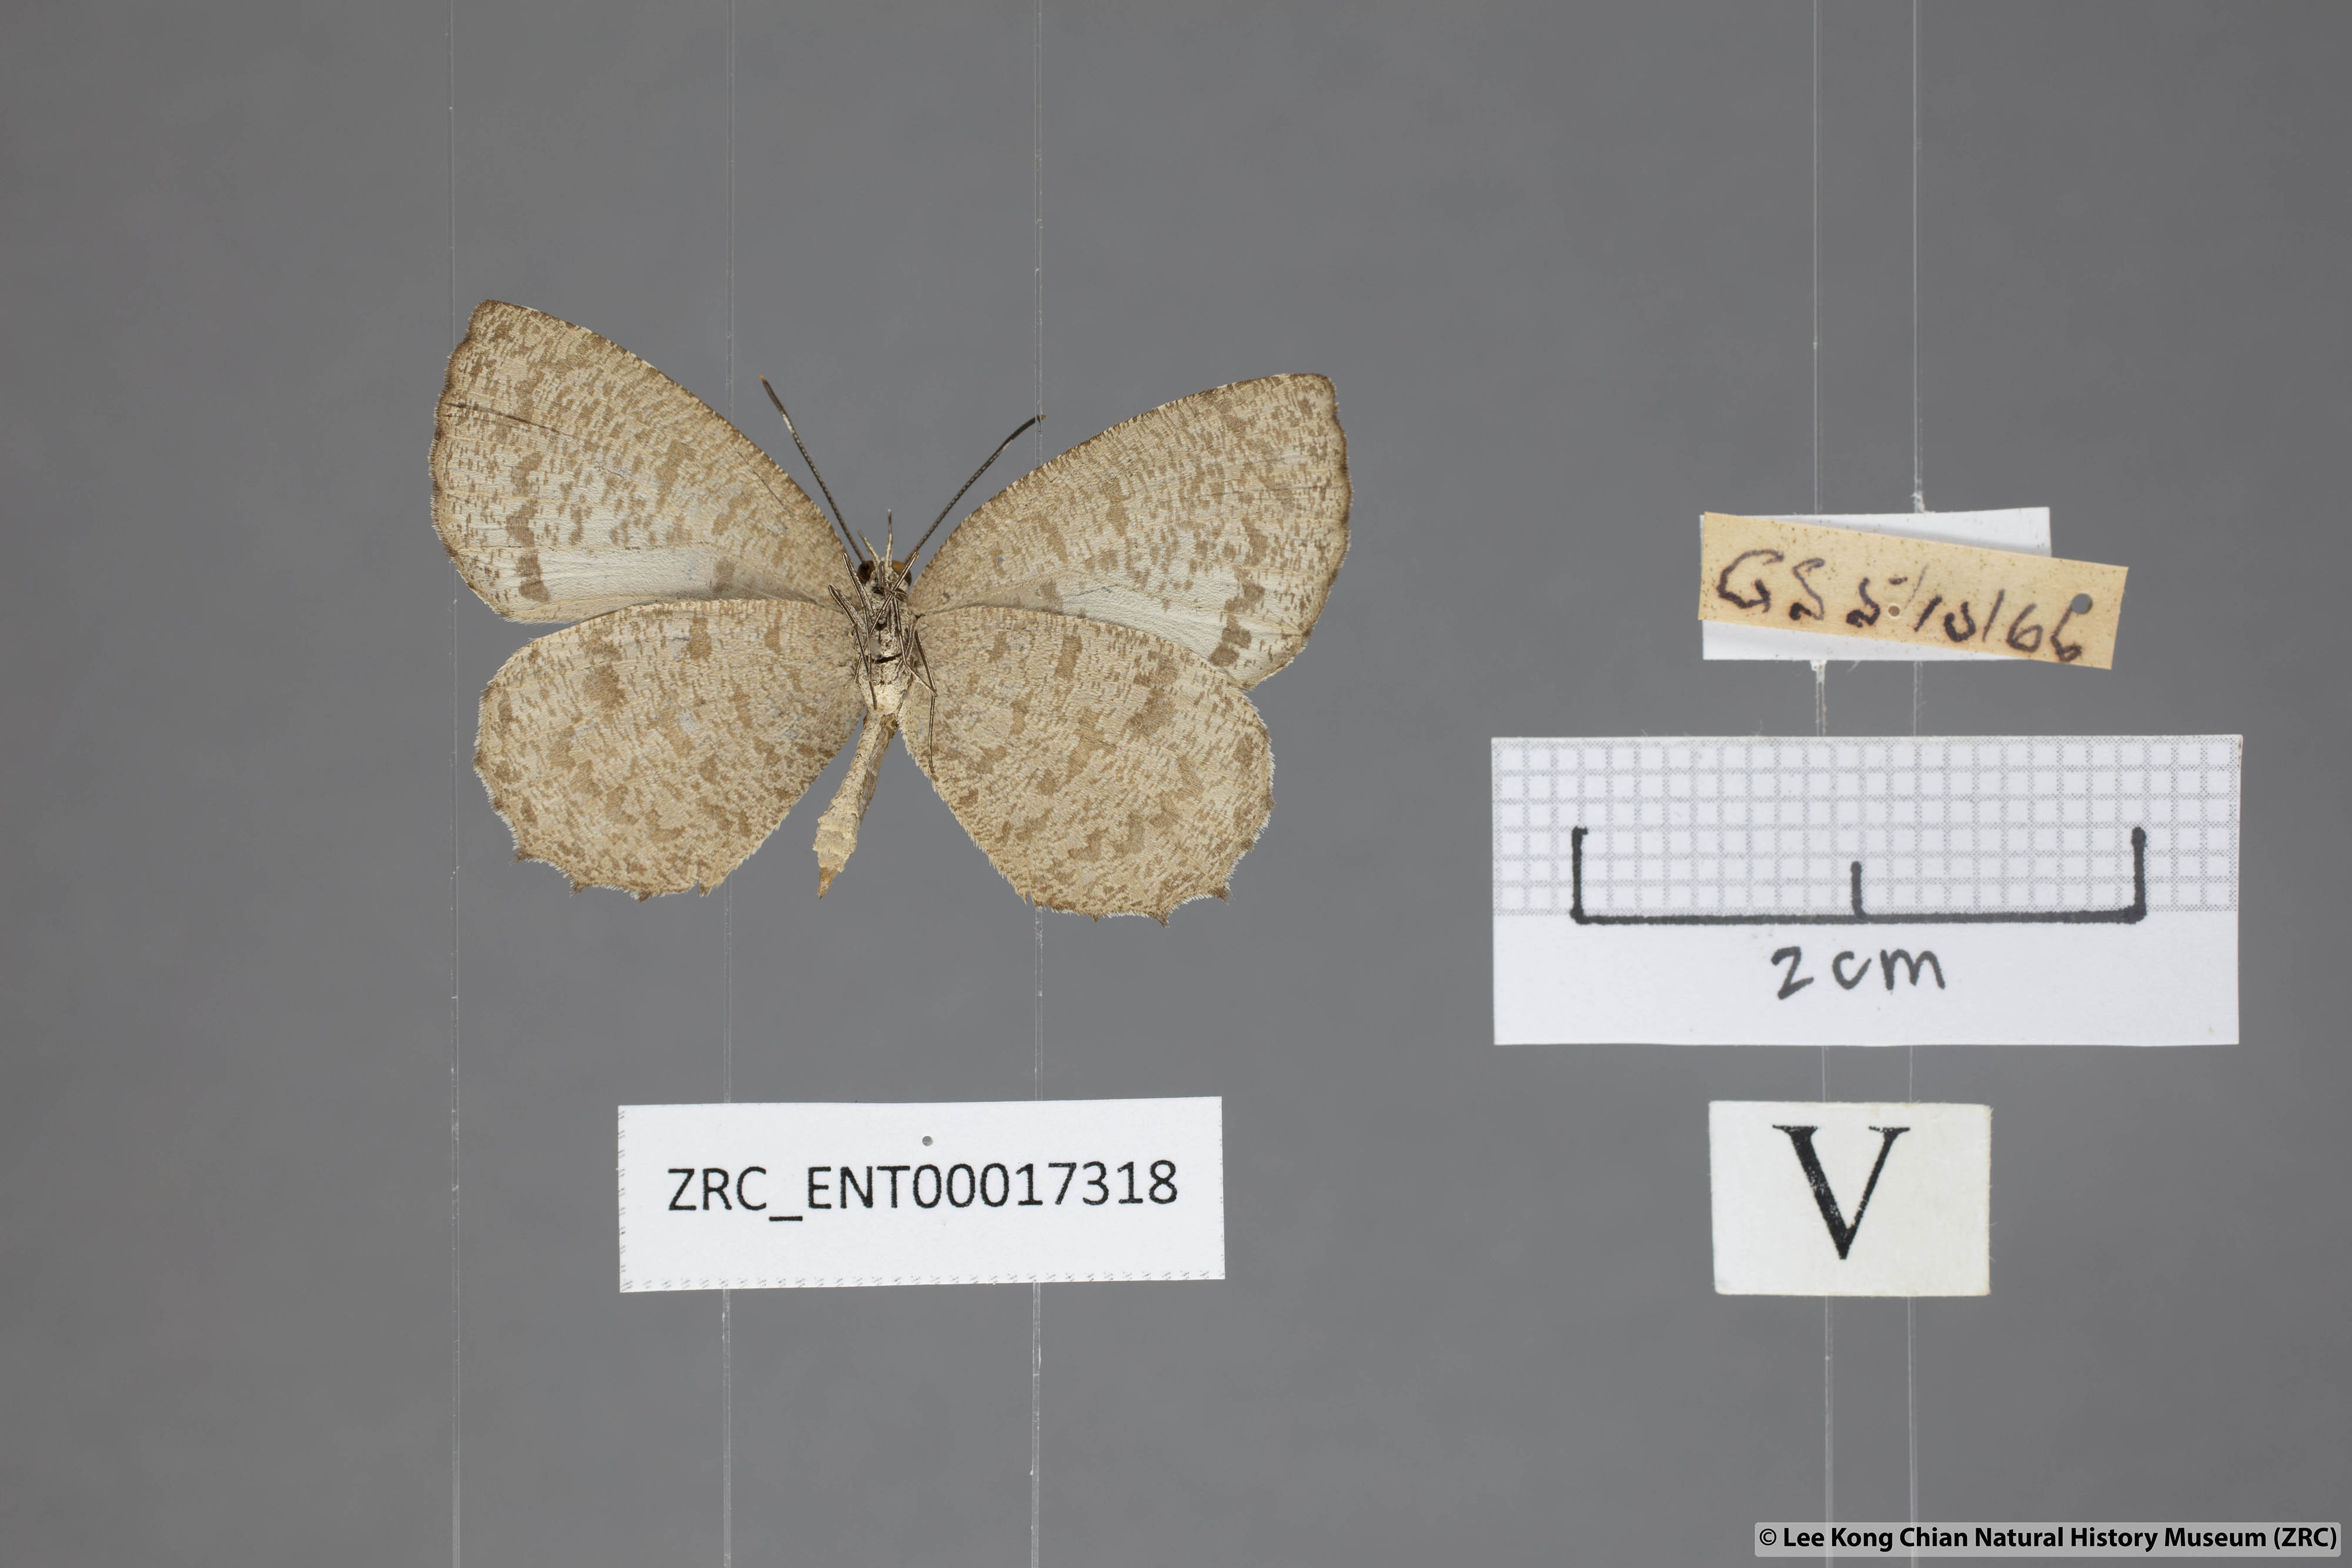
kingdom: Animalia
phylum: Arthropoda
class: Insecta
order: Lepidoptera
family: Lycaenidae
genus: Allotinus
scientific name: Allotinus subviolaceus
